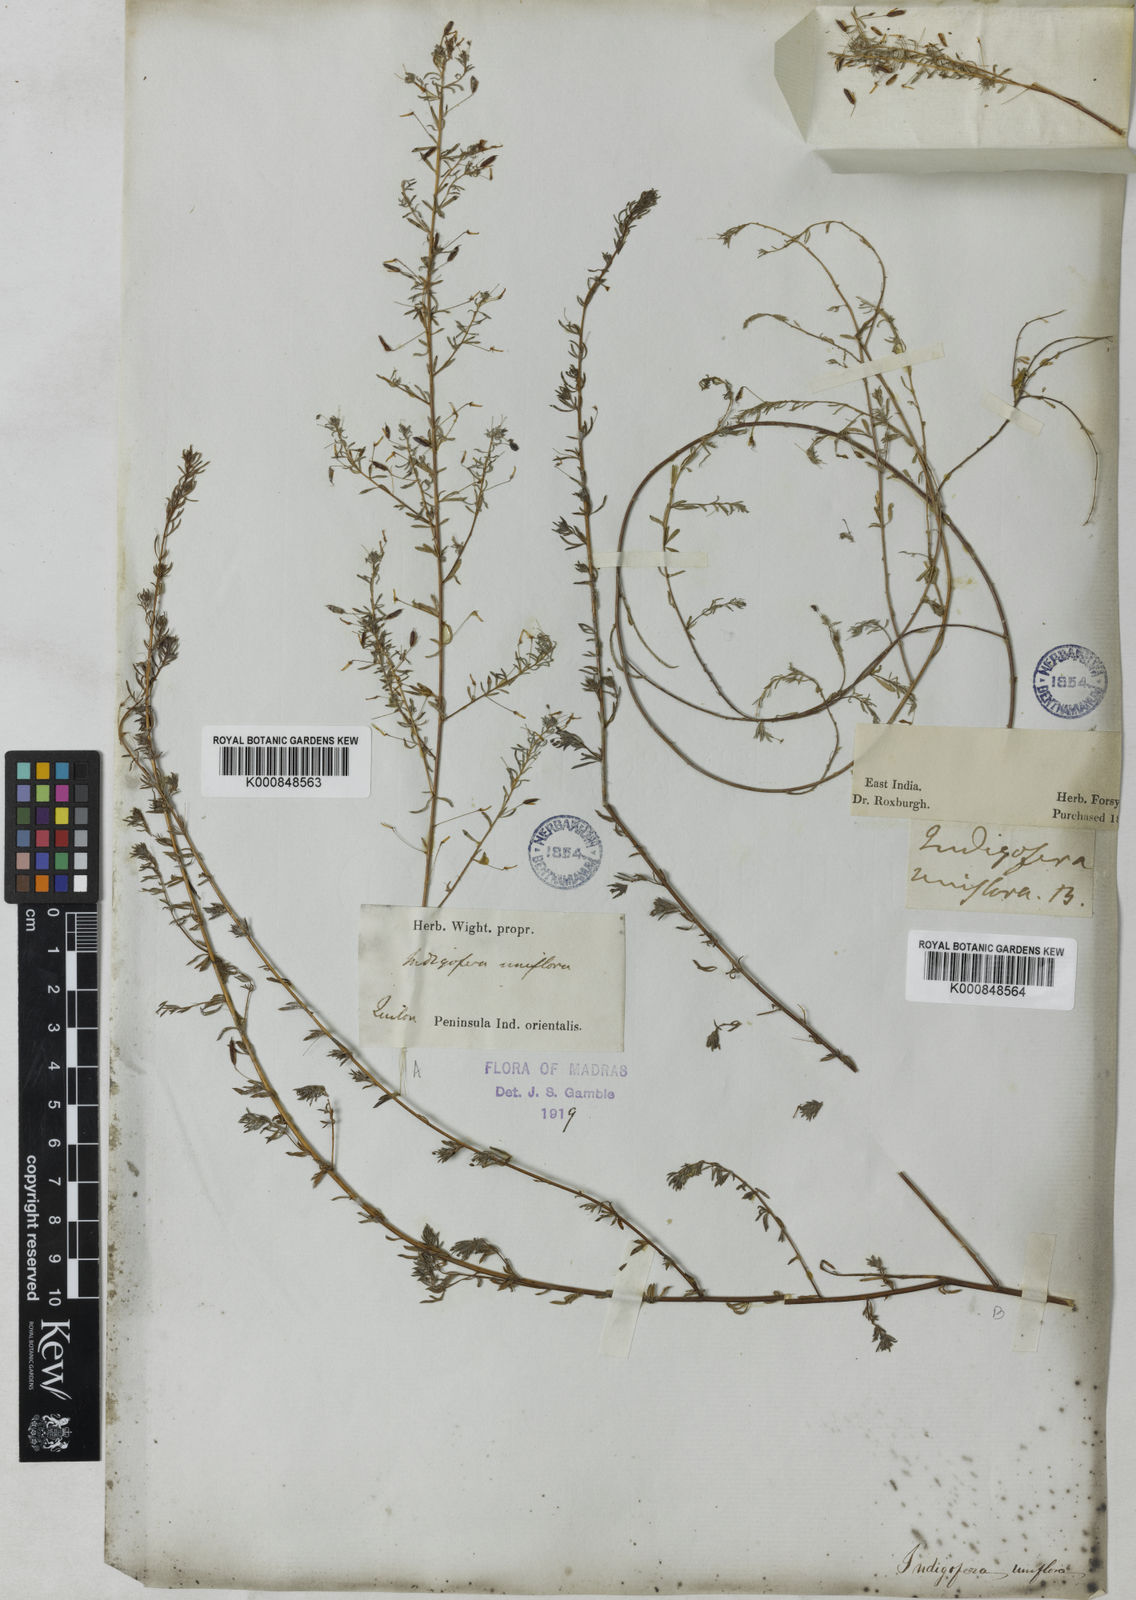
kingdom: Plantae
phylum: Tracheophyta
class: Magnoliopsida
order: Fabales
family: Fabaceae
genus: Indigofera
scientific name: Indigofera uniflora
